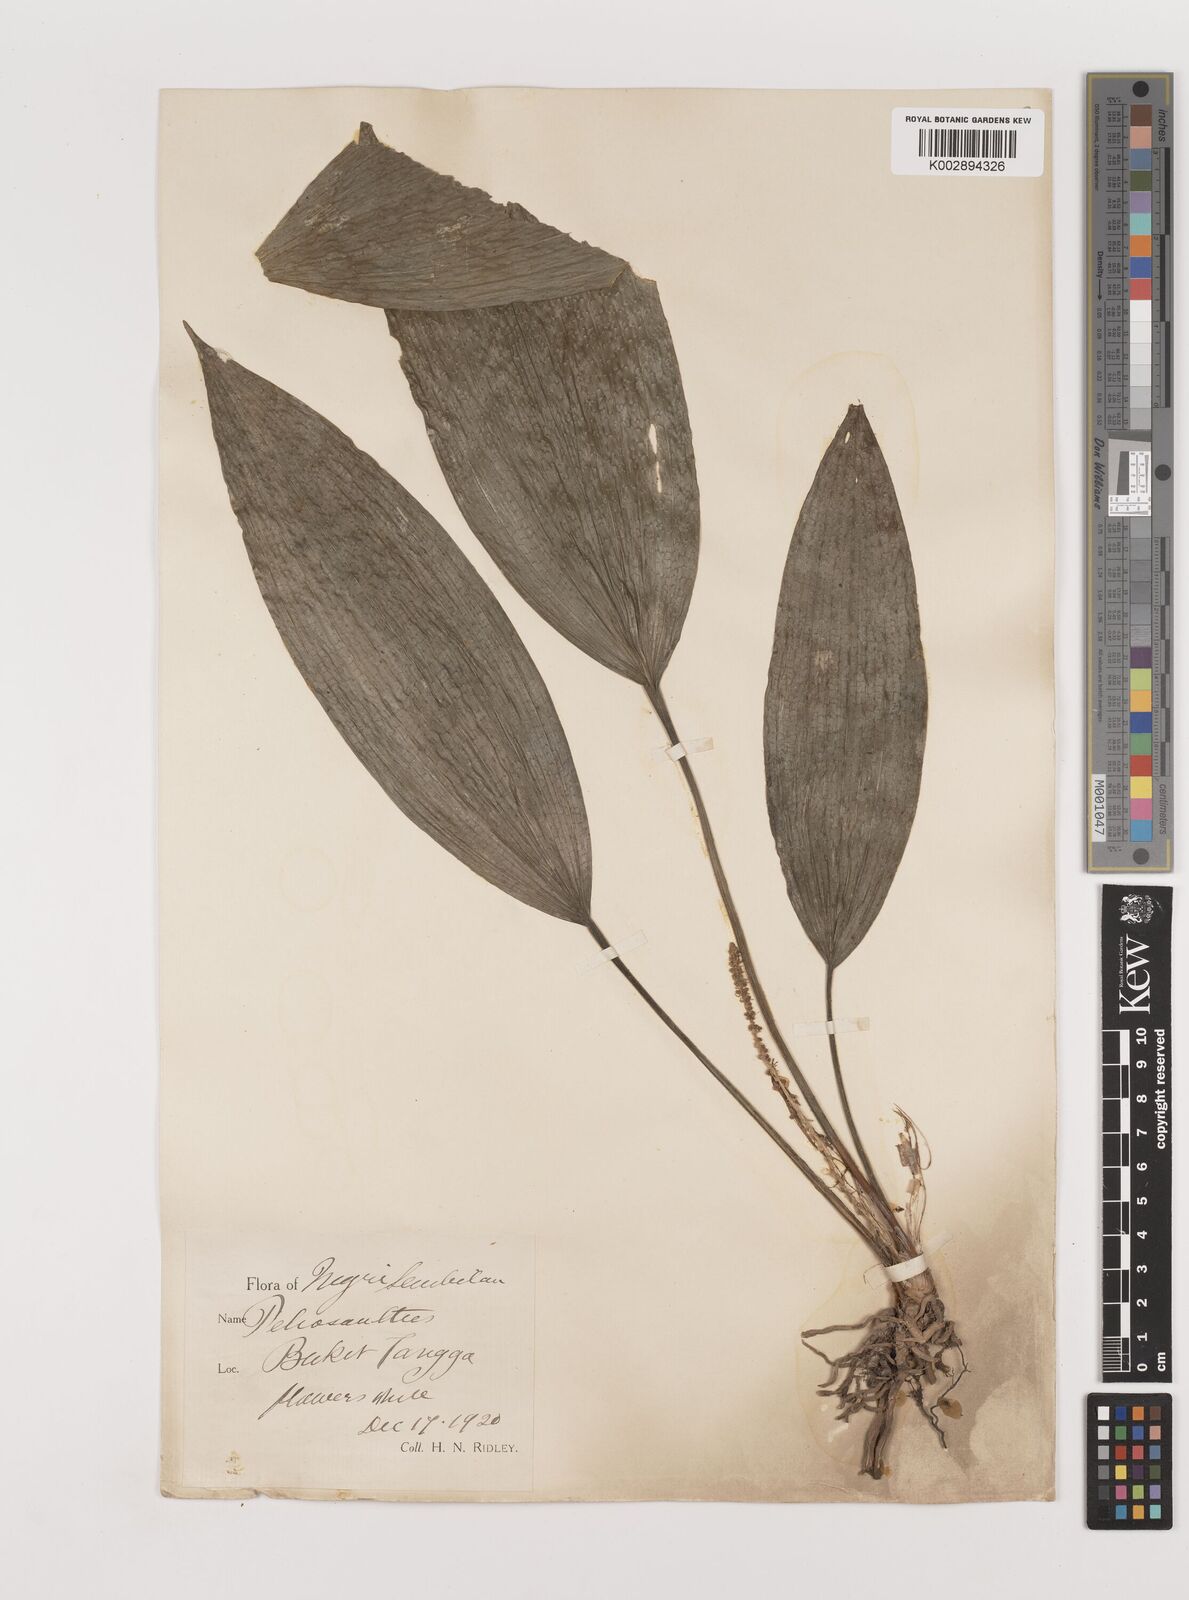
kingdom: Plantae
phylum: Tracheophyta
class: Liliopsida
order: Asparagales
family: Asparagaceae
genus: Peliosanthes
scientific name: Peliosanthes teta
